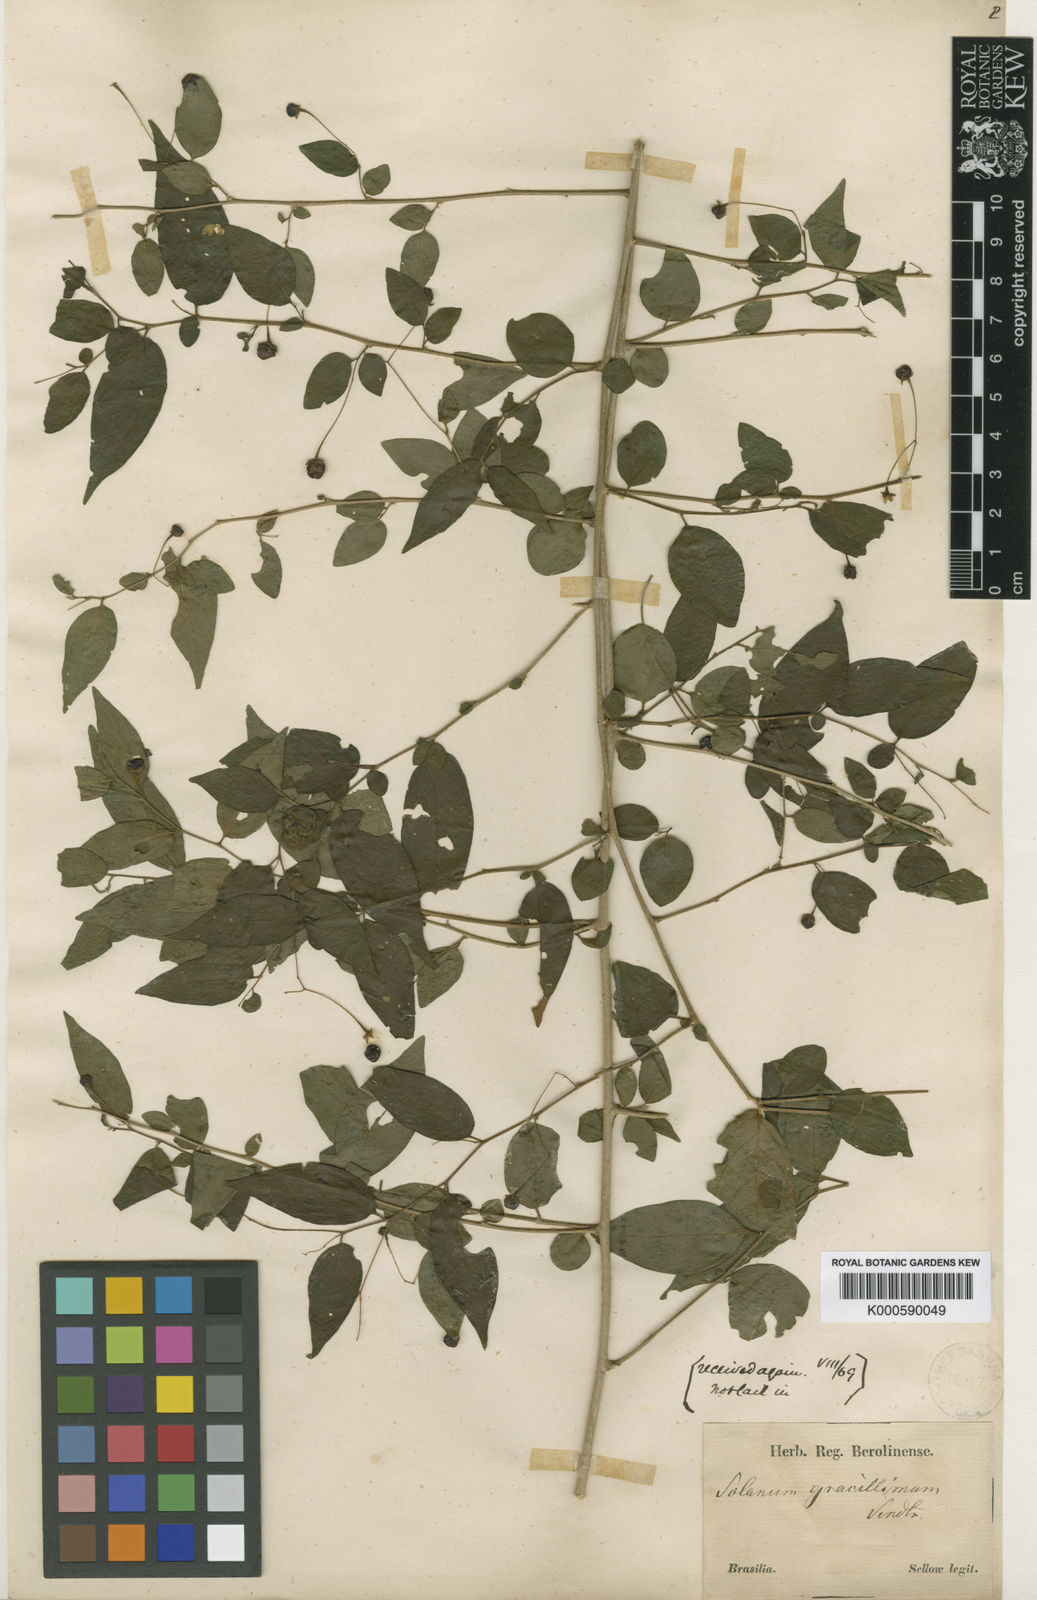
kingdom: Plantae
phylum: Tracheophyta
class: Magnoliopsida
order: Solanales
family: Solanaceae
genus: Solanum
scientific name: Solanum hirtellum
